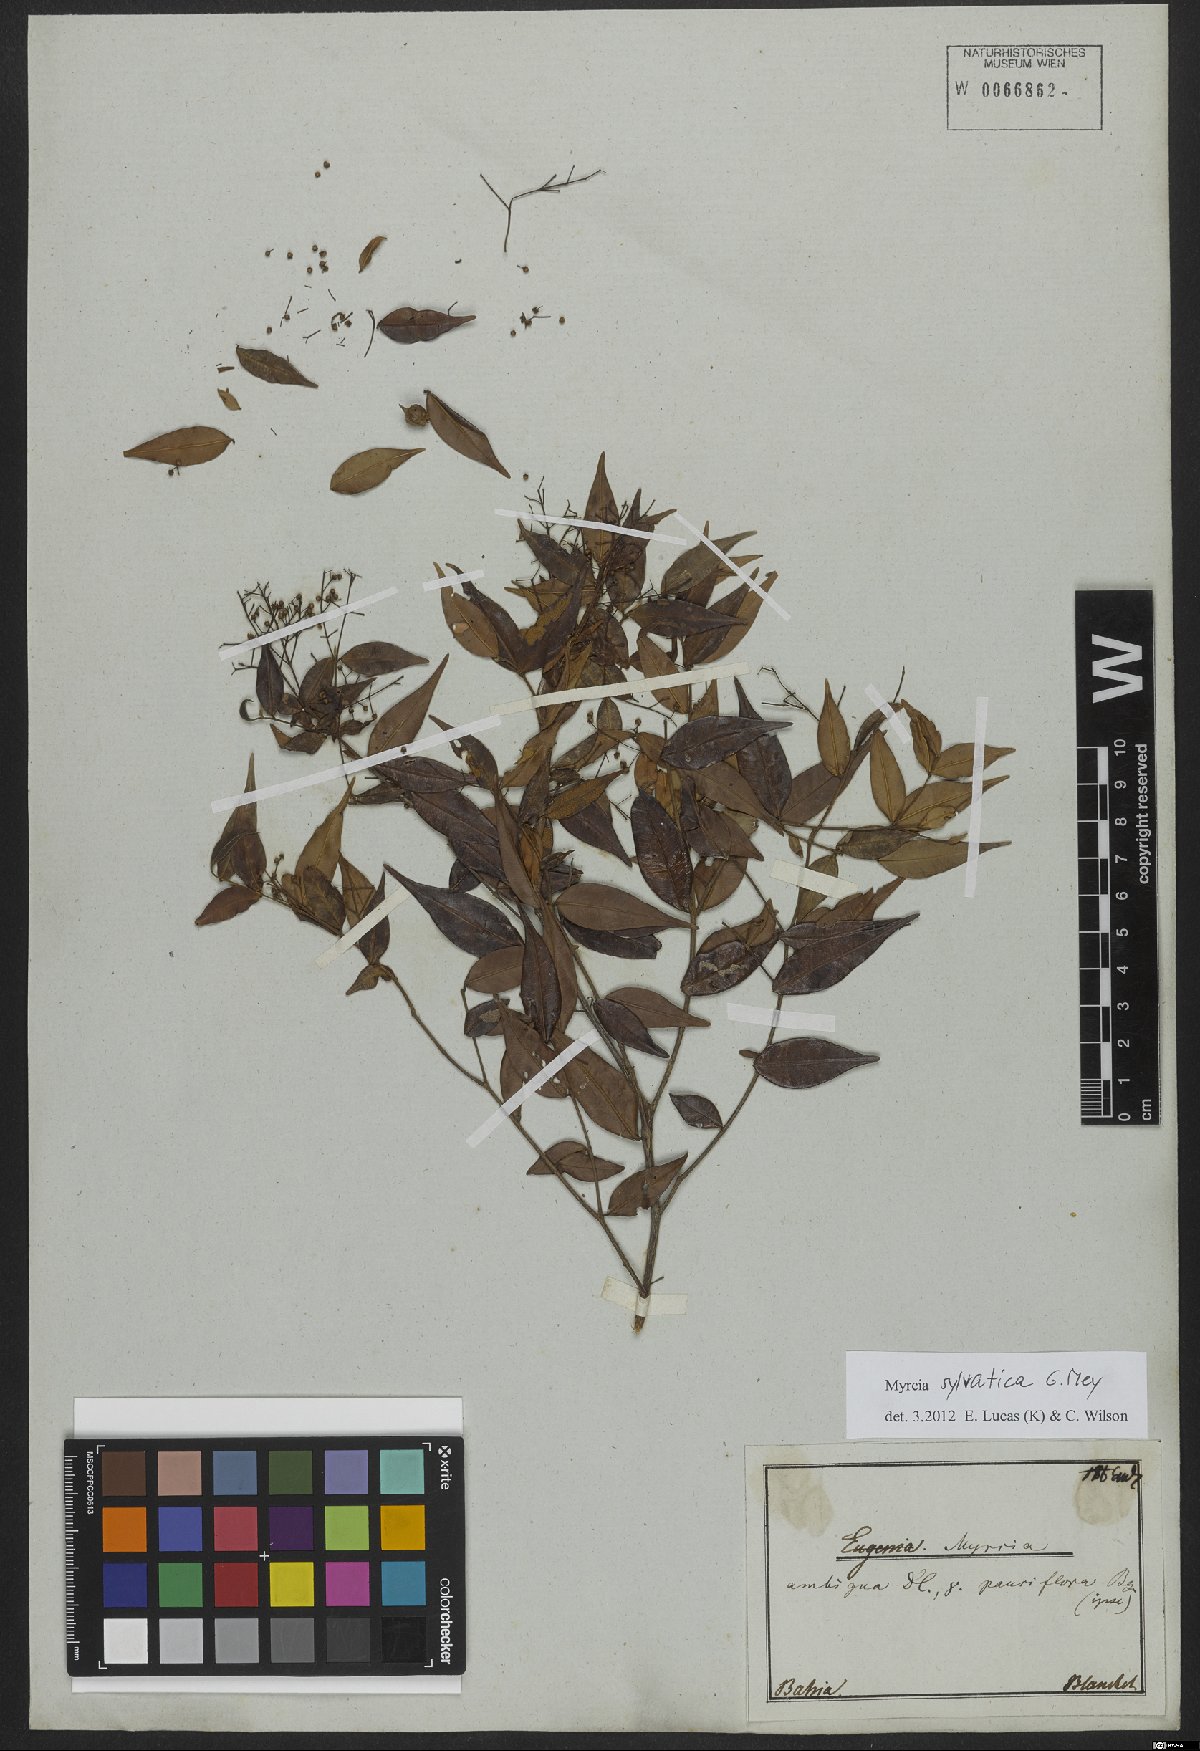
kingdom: Plantae
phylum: Tracheophyta
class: Magnoliopsida
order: Myrtales
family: Myrtaceae
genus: Myrcia
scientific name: Myrcia sylvatica
